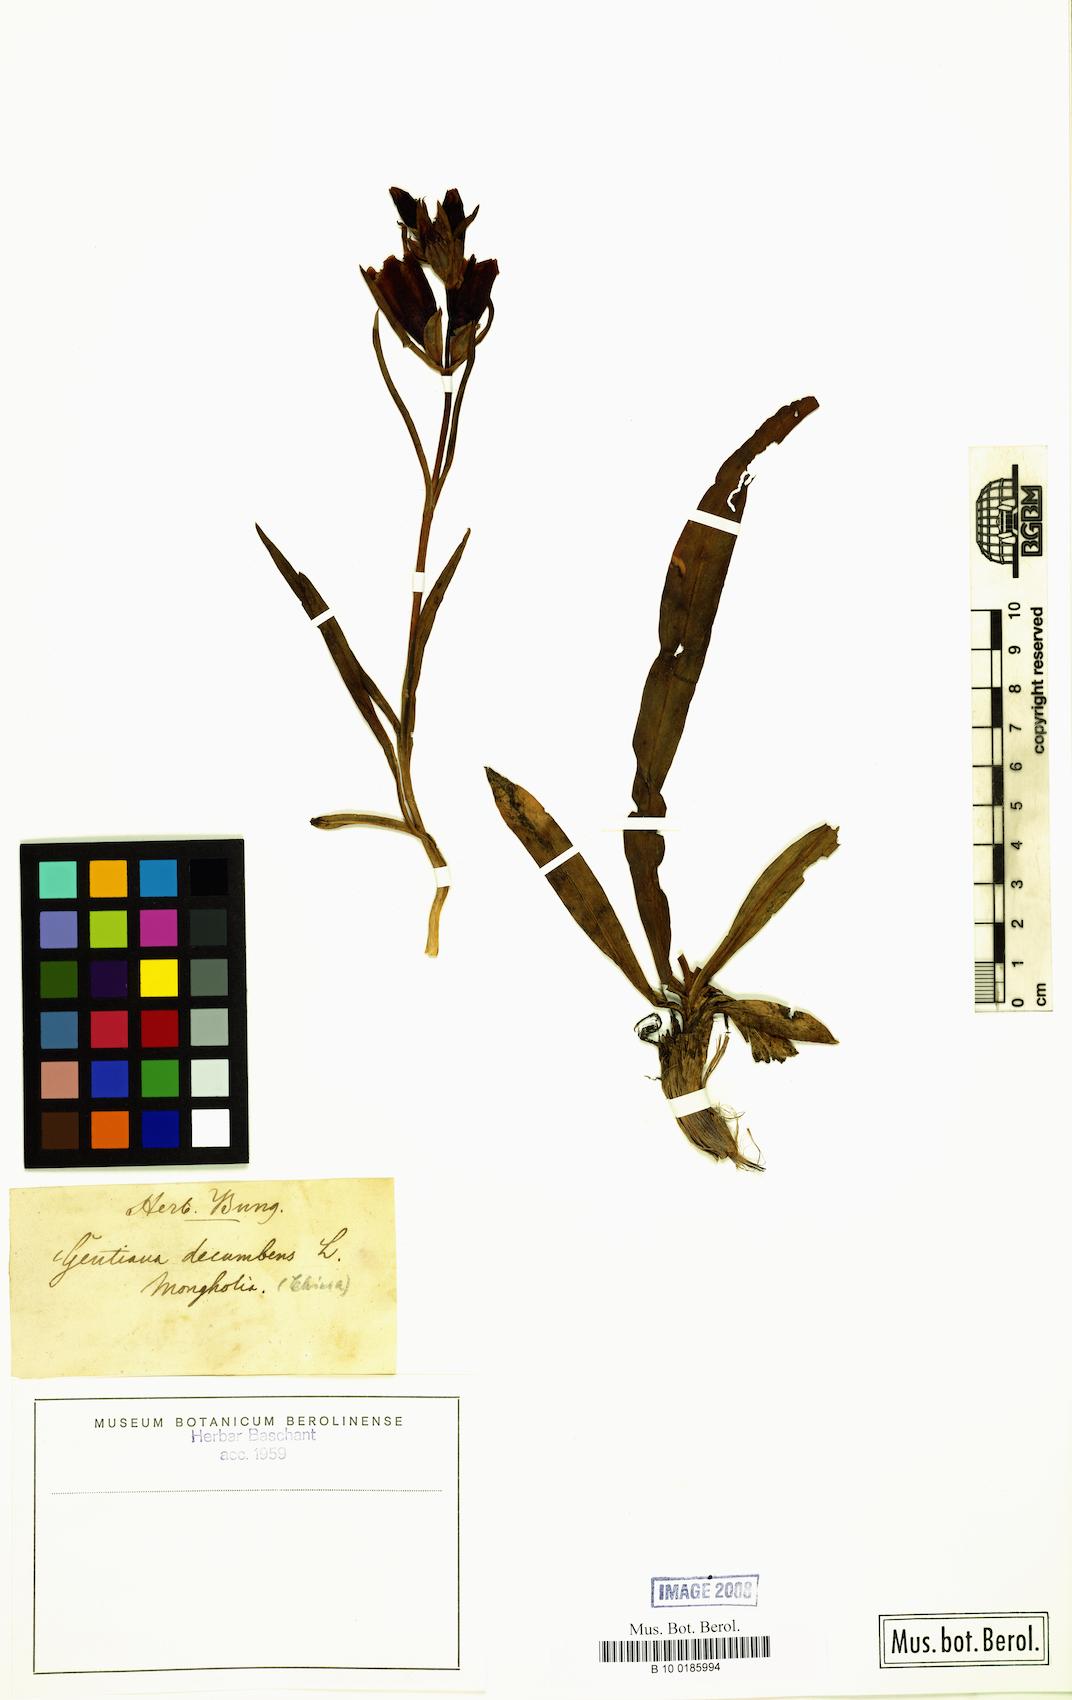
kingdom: Plantae
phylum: Tracheophyta
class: Magnoliopsida
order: Gentianales
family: Gentianaceae
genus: Gentiana
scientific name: Gentiana decumbens
